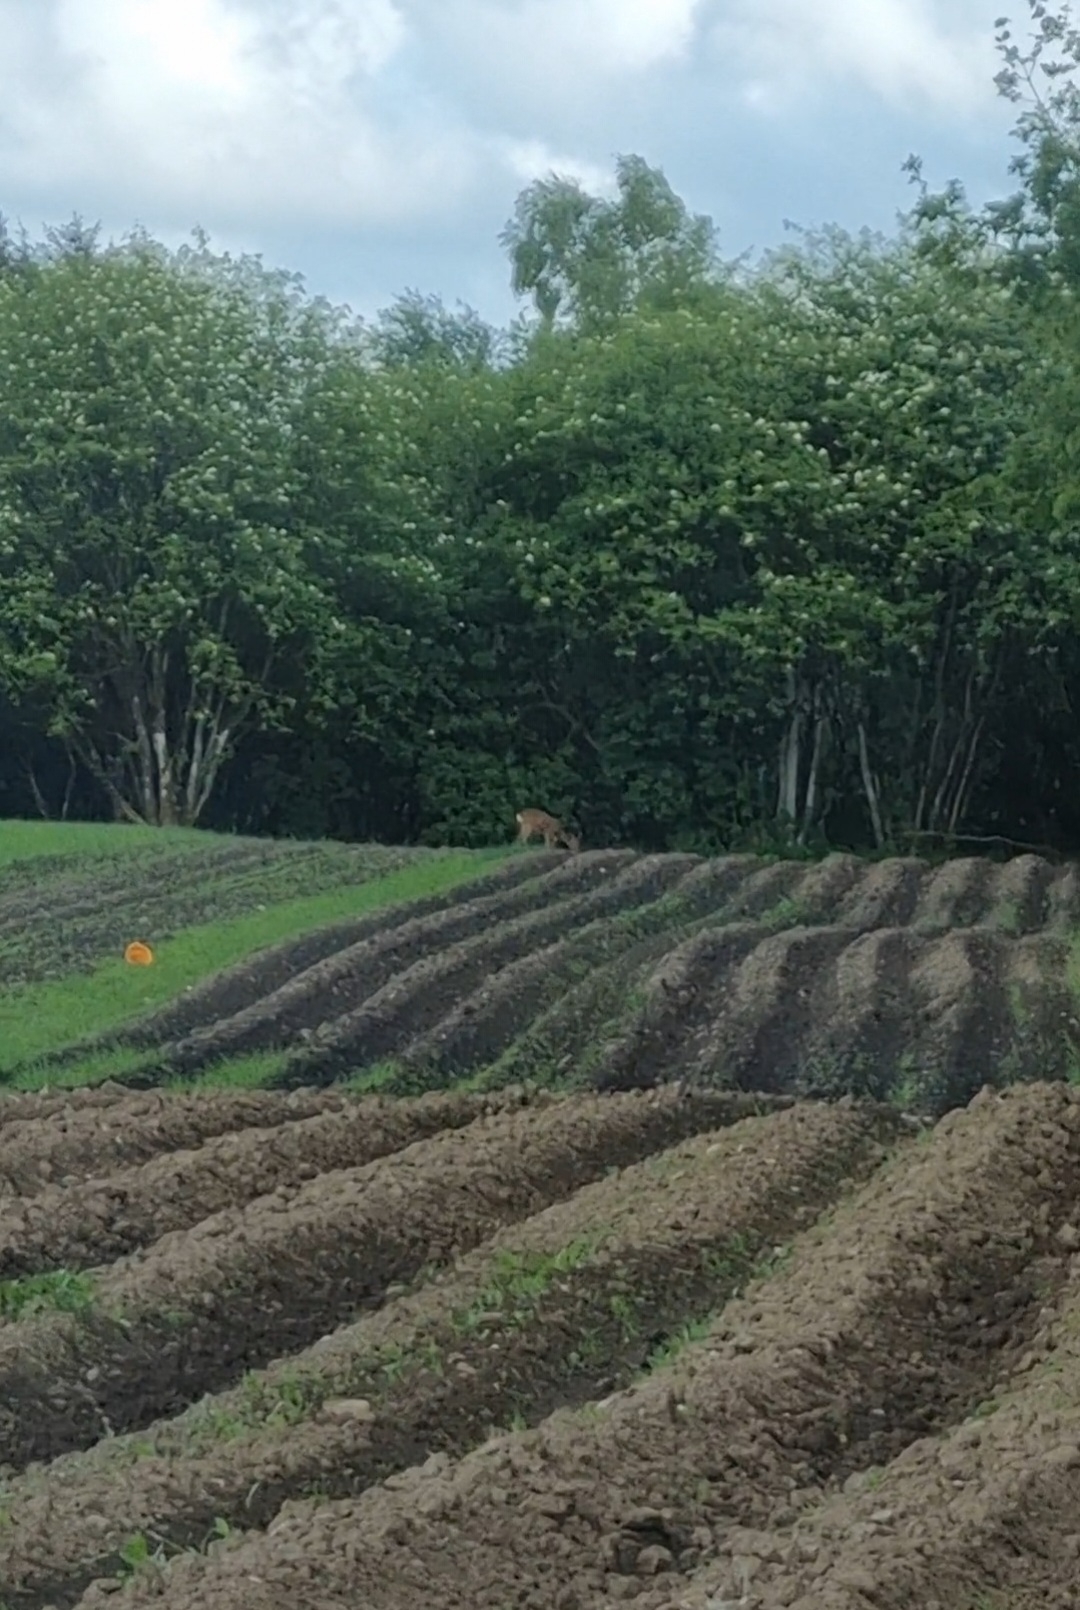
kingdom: Animalia
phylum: Chordata
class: Mammalia
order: Artiodactyla
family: Cervidae
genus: Capreolus
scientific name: Capreolus capreolus
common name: Rådyr
